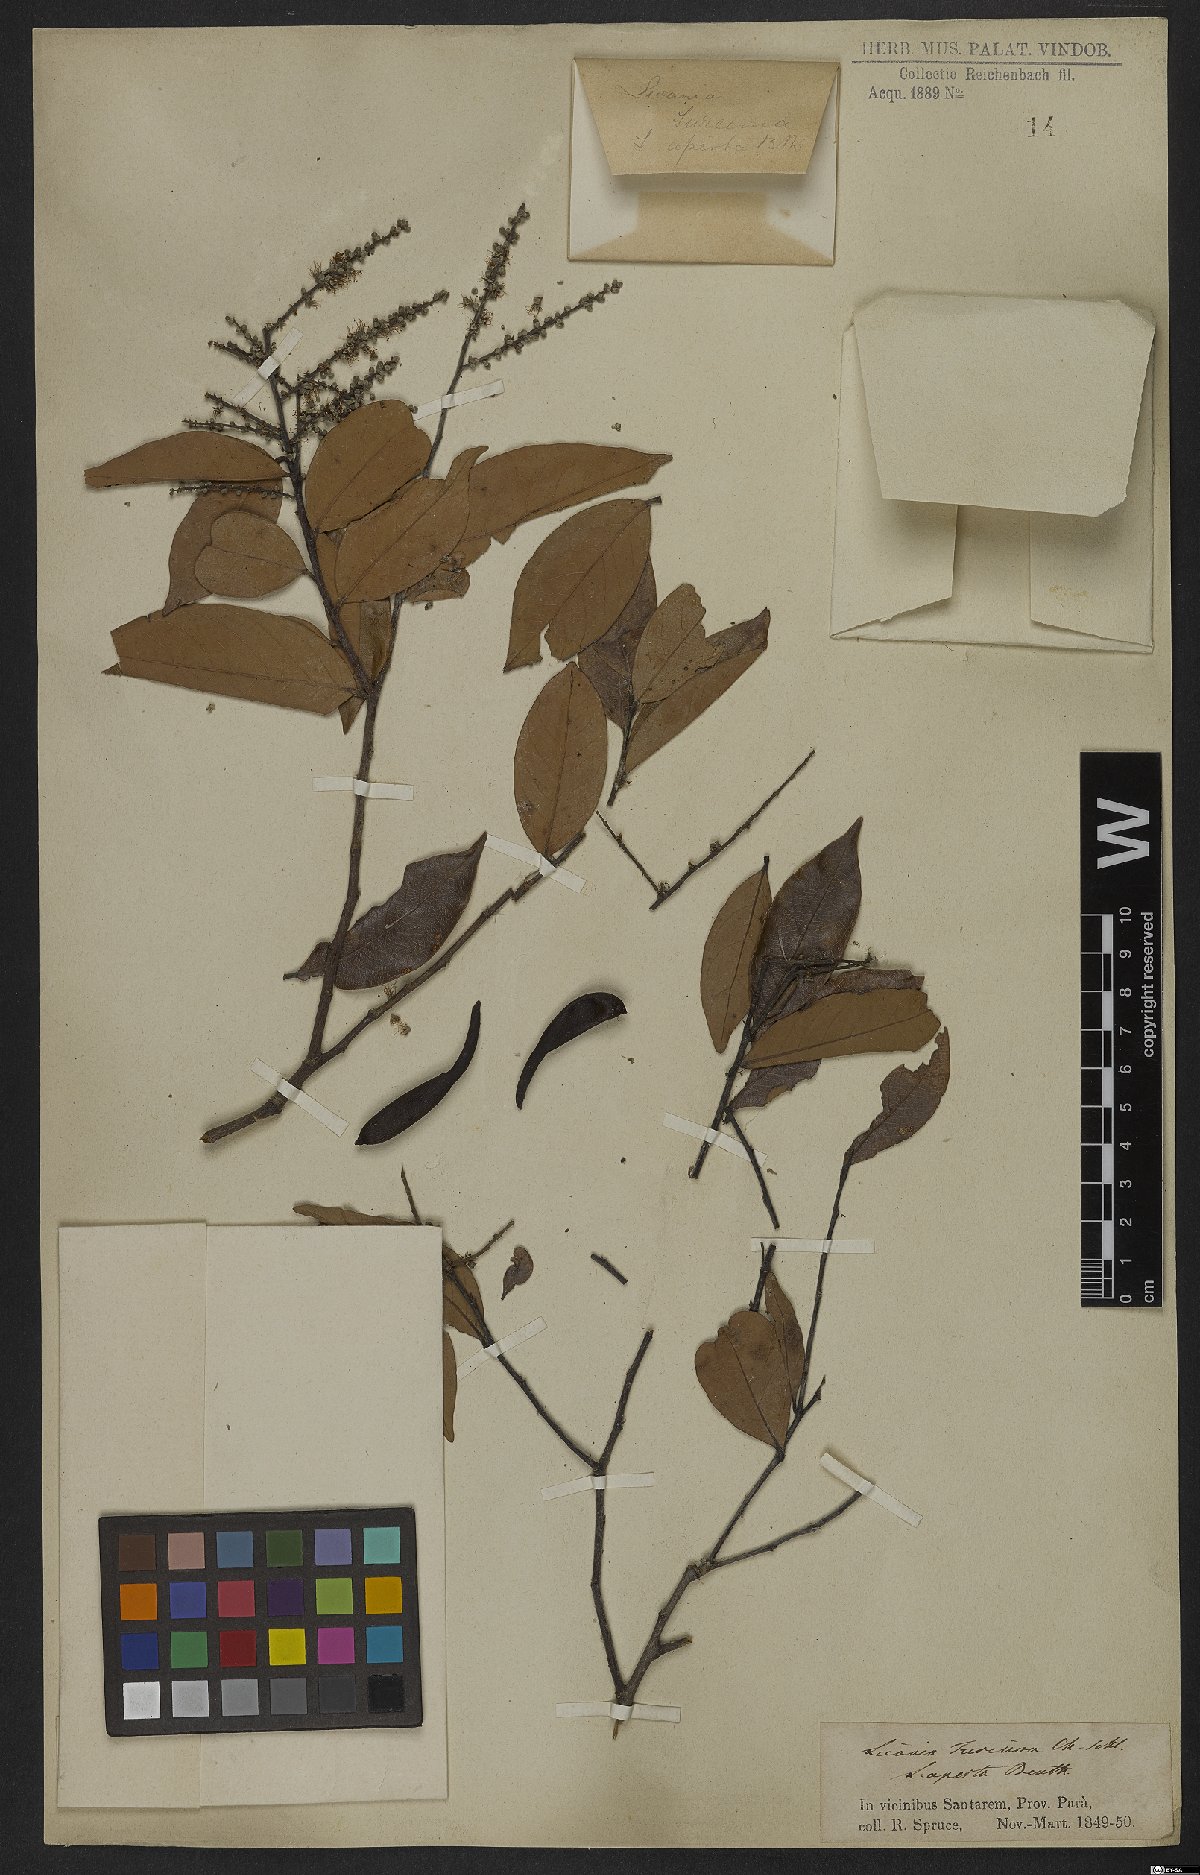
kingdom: Plantae
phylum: Tracheophyta
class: Magnoliopsida
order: Malpighiales
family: Chrysobalanaceae
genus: Leptobalanus
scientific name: Leptobalanus octandrus
